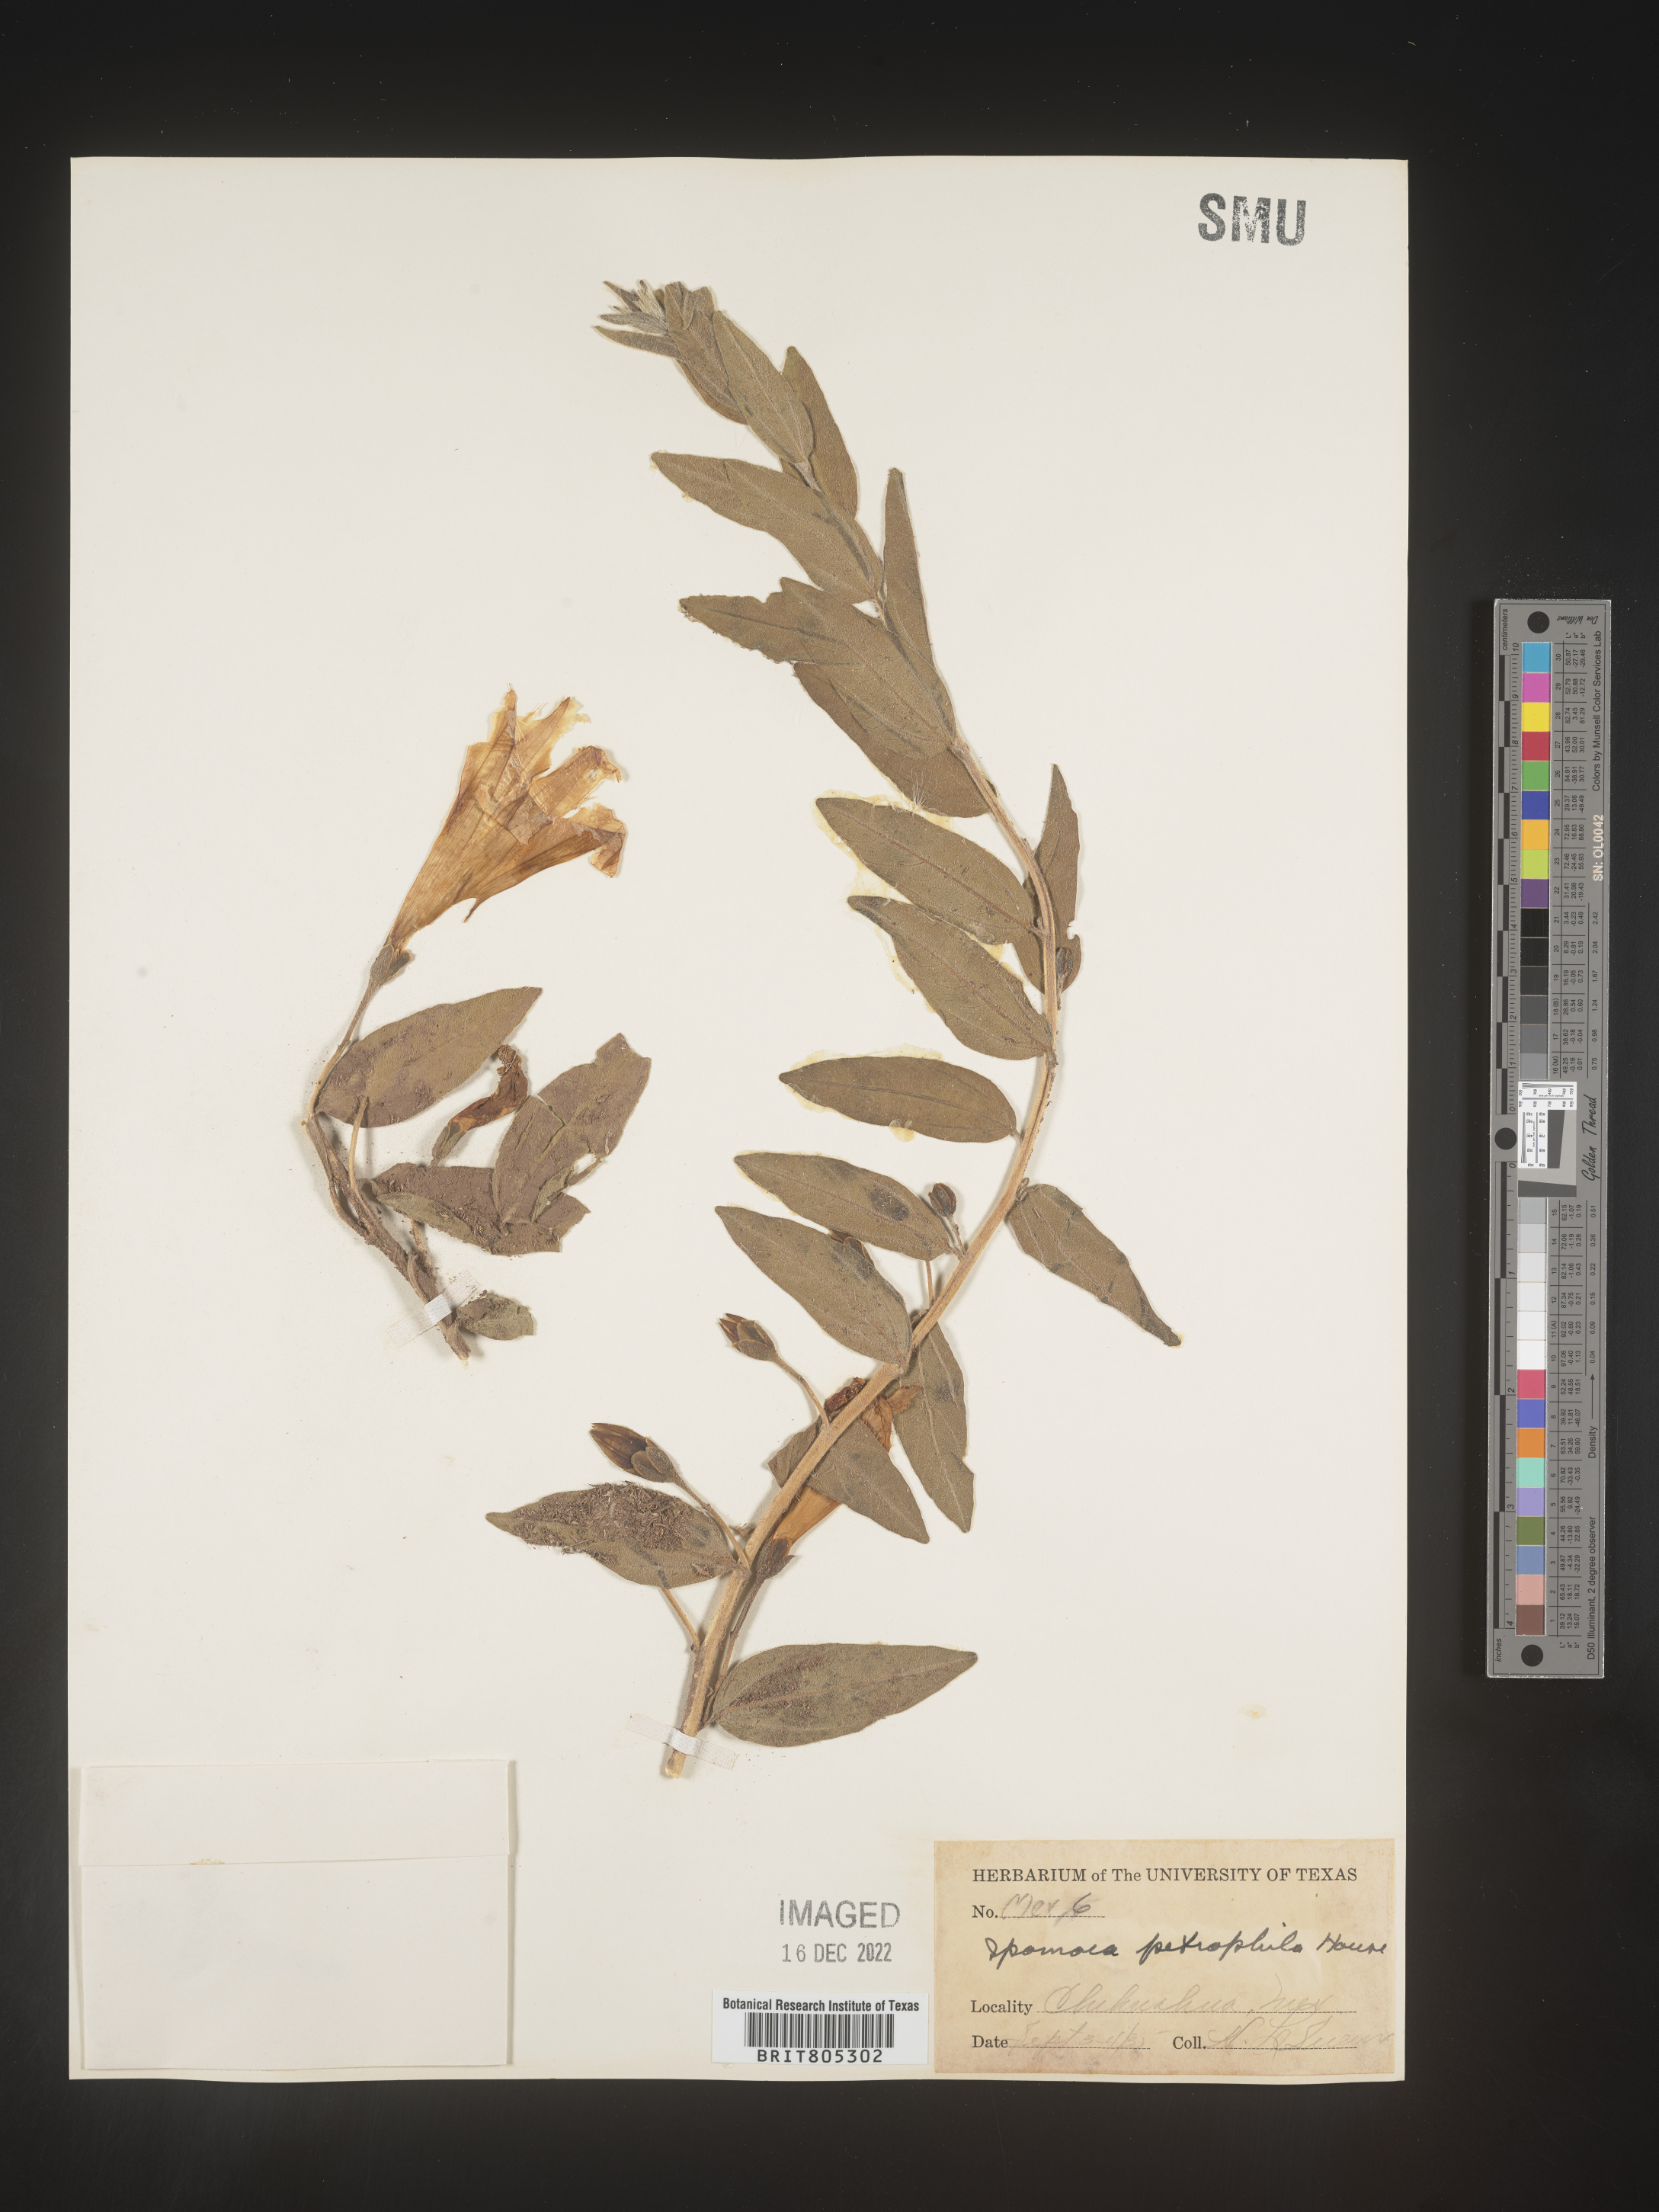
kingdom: Plantae
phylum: Tracheophyta
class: Magnoliopsida
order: Solanales
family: Convolvulaceae
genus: Ipomoea
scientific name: Ipomoea
